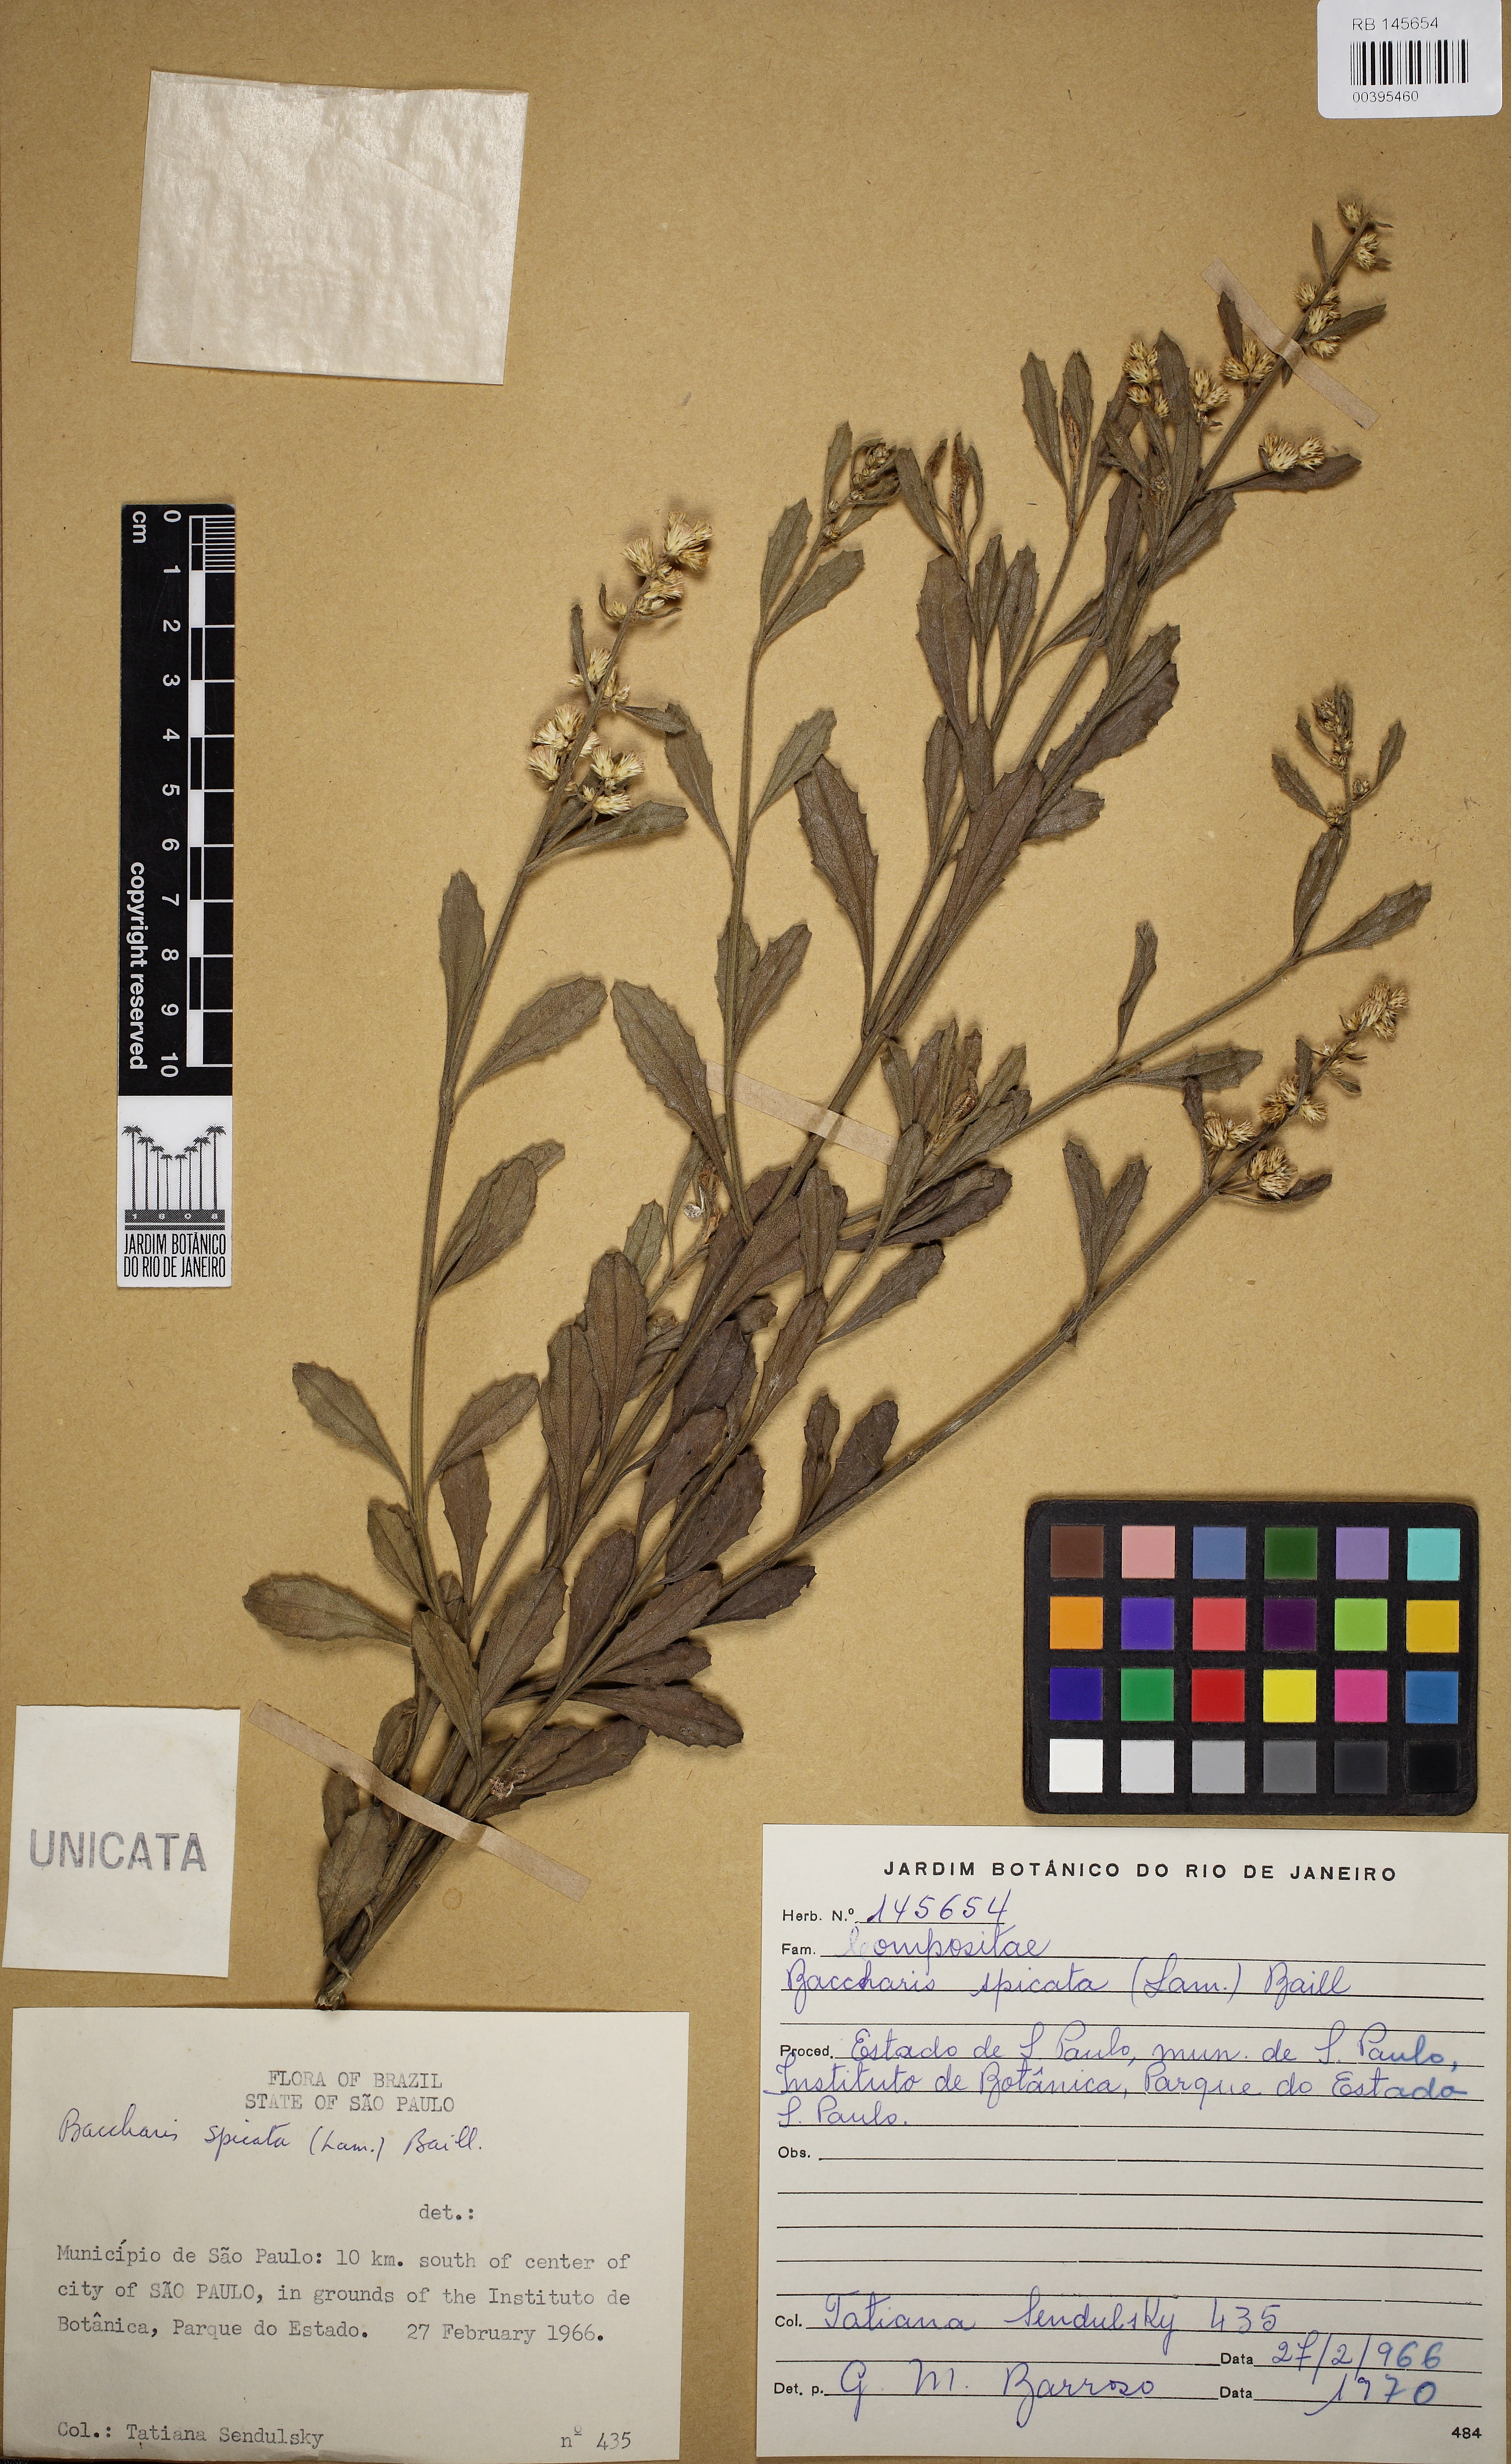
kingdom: Plantae
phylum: Tracheophyta
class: Magnoliopsida
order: Asterales
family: Asteraceae
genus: Baccharis
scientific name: Baccharis spicata
